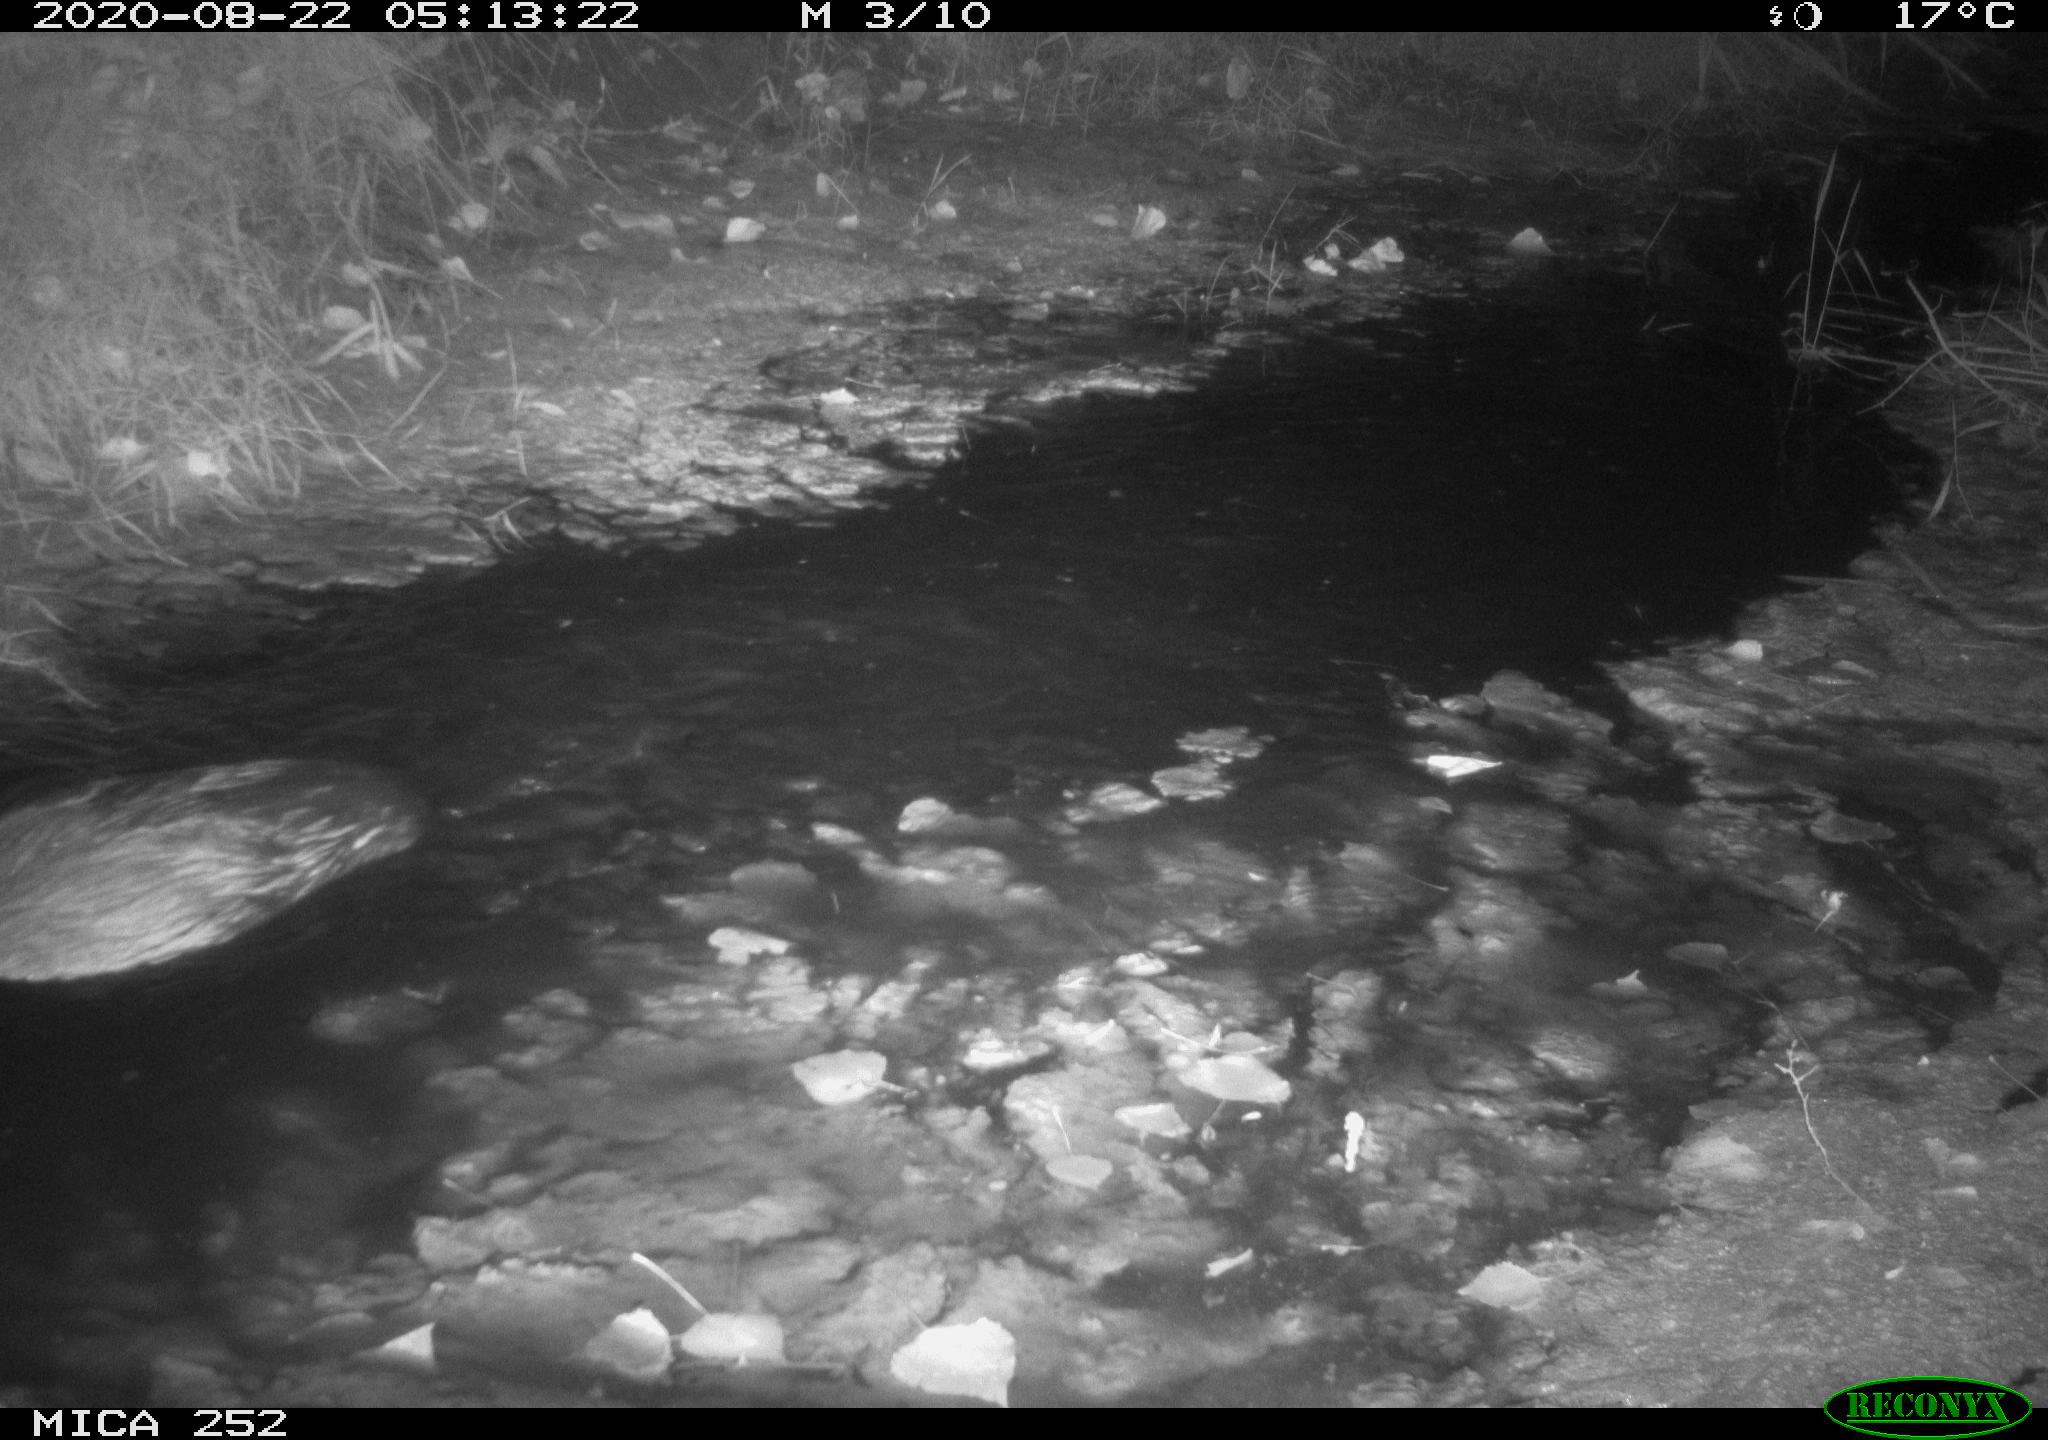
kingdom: Animalia
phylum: Chordata
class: Mammalia
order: Rodentia
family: Castoridae
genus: Castor
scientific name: Castor fiber
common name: Eurasian beaver
